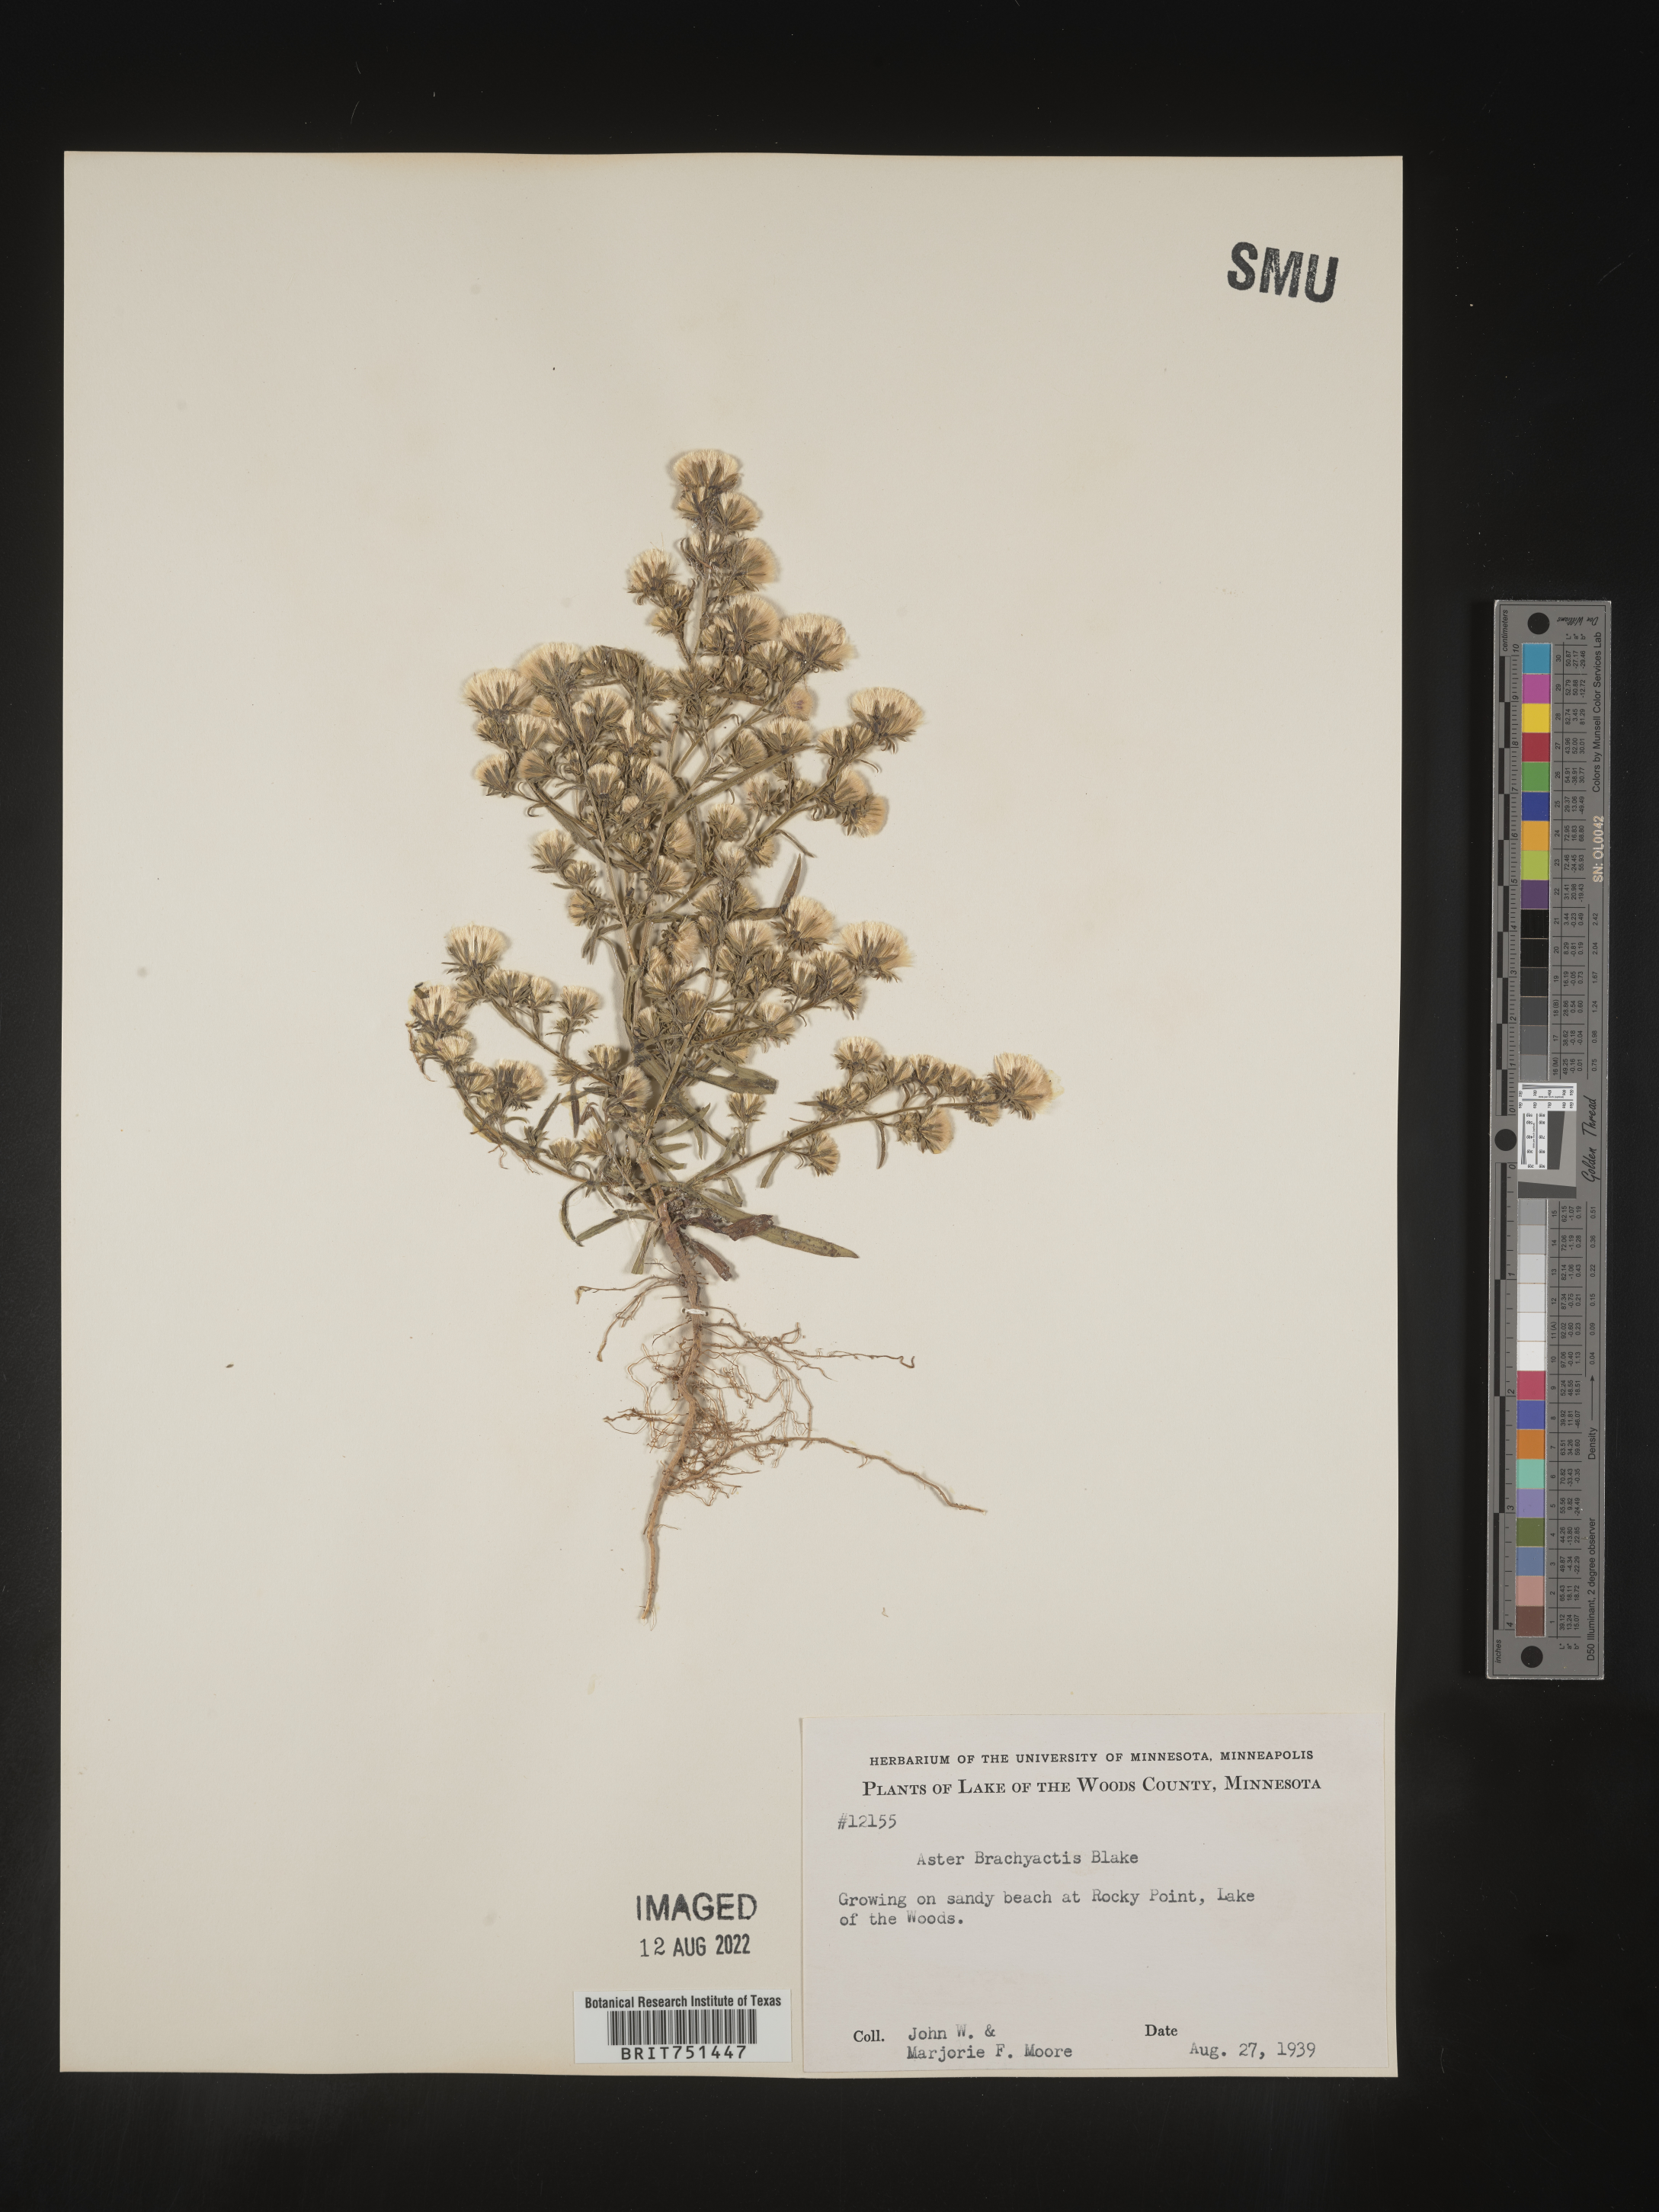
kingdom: Plantae
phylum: Tracheophyta
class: Magnoliopsida
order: Asterales
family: Asteraceae
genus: Symphyotrichum
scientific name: Symphyotrichum ciliatum
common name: Rayless annual aster
